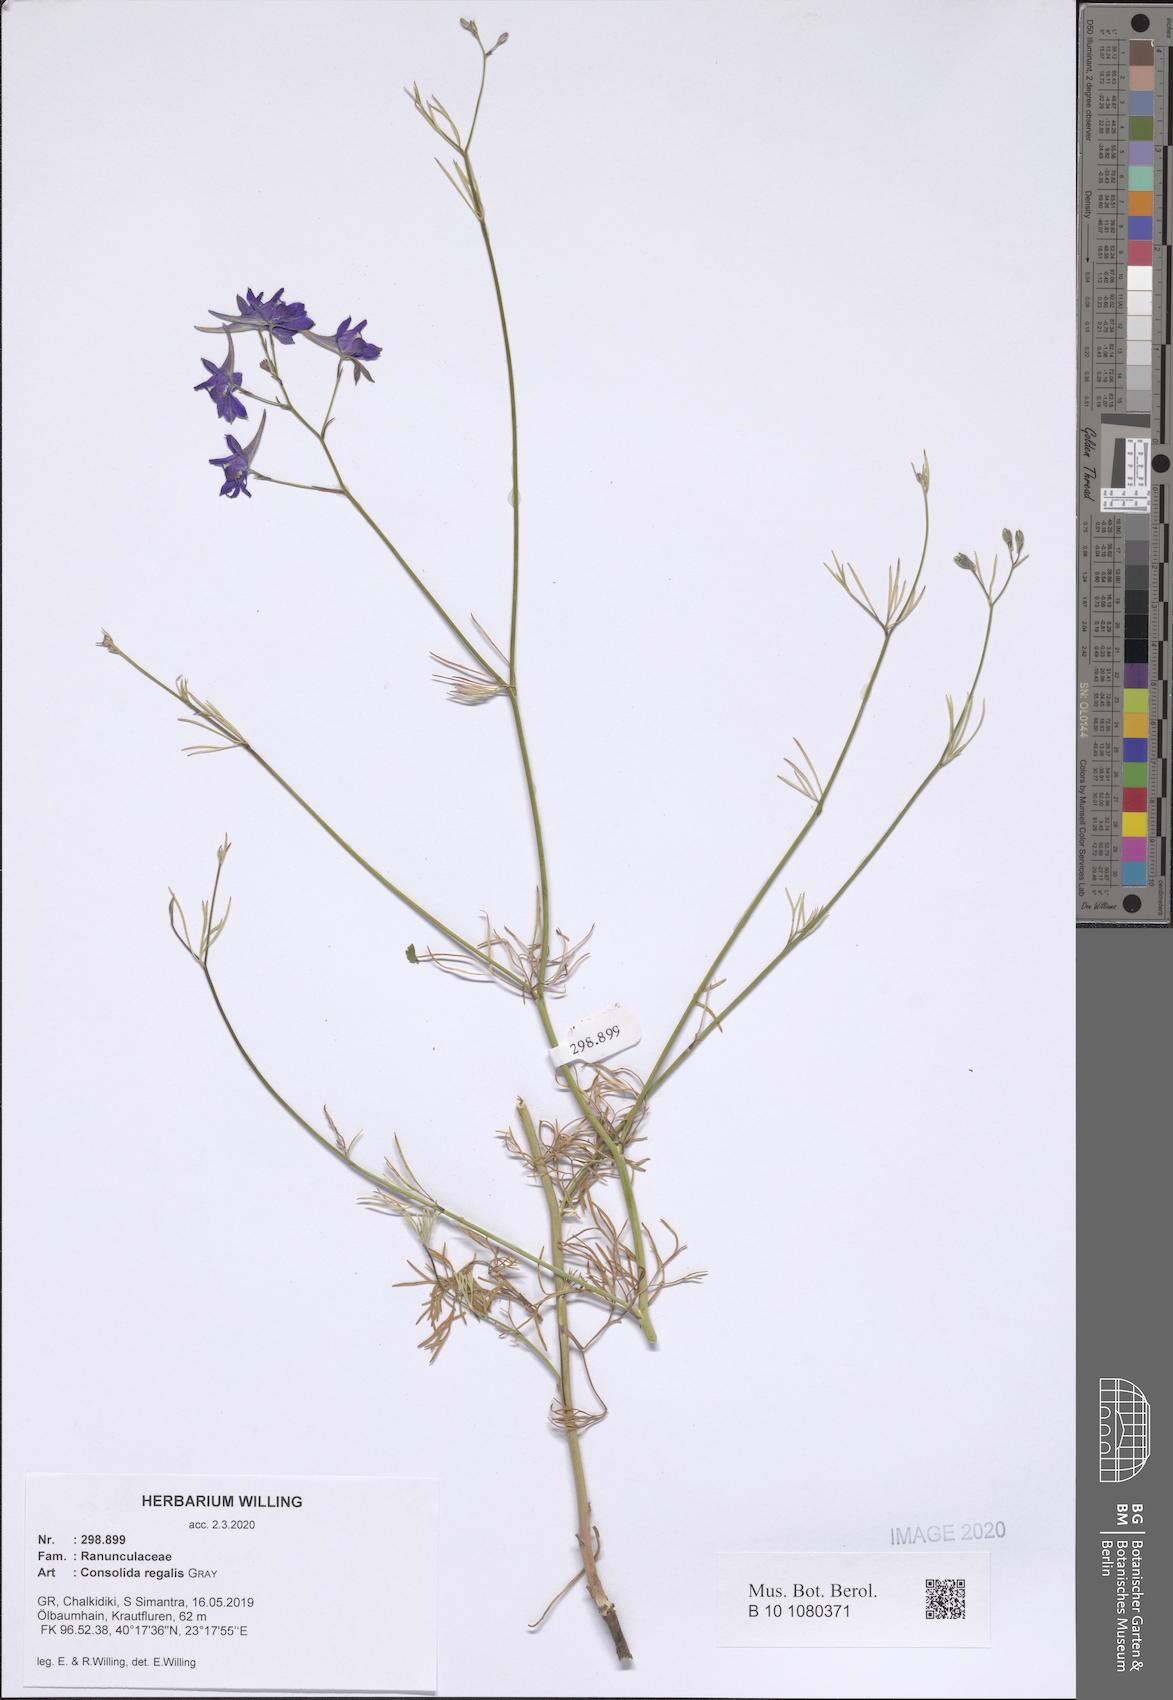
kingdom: Plantae
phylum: Tracheophyta
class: Magnoliopsida
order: Ranunculales
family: Ranunculaceae
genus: Delphinium
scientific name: Delphinium consolida
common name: Branching larkspur
